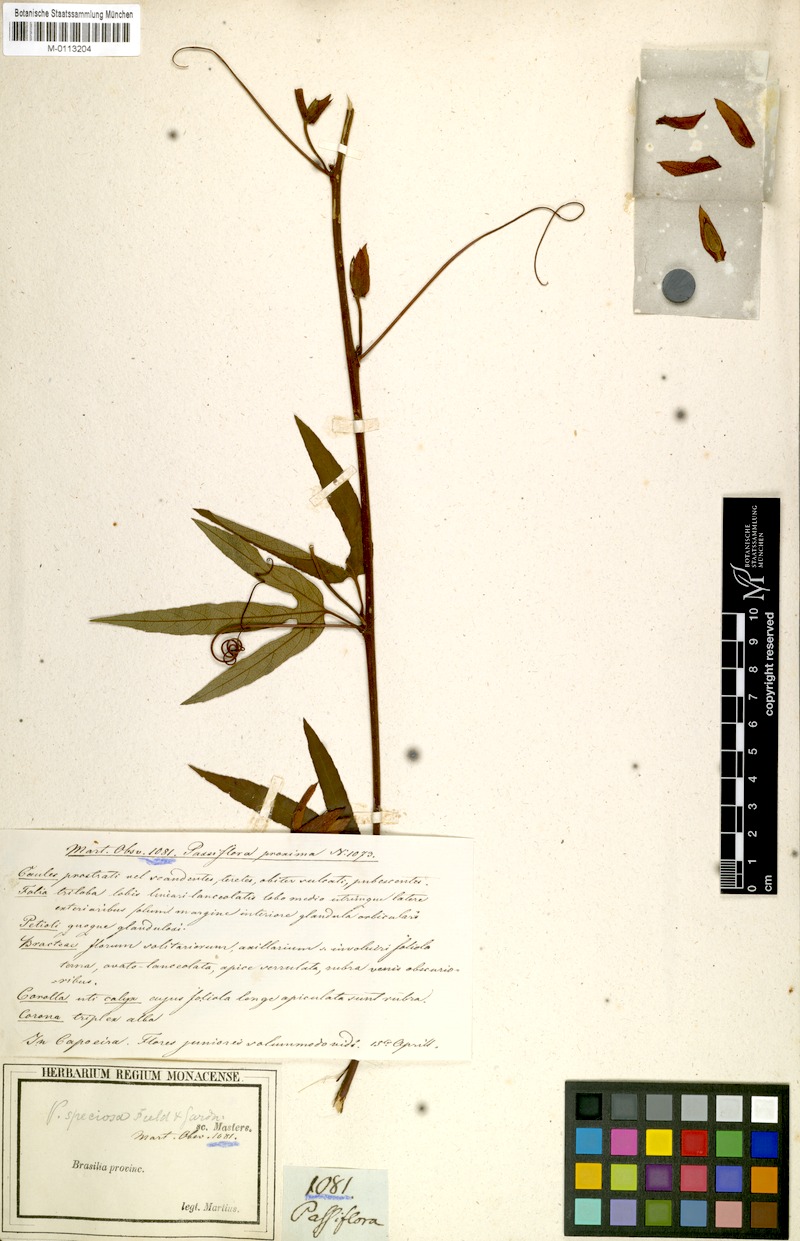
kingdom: Plantae
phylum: Tracheophyta
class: Magnoliopsida
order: Malpighiales
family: Passifloraceae
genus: Passiflora
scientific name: Passiflora speciosa
